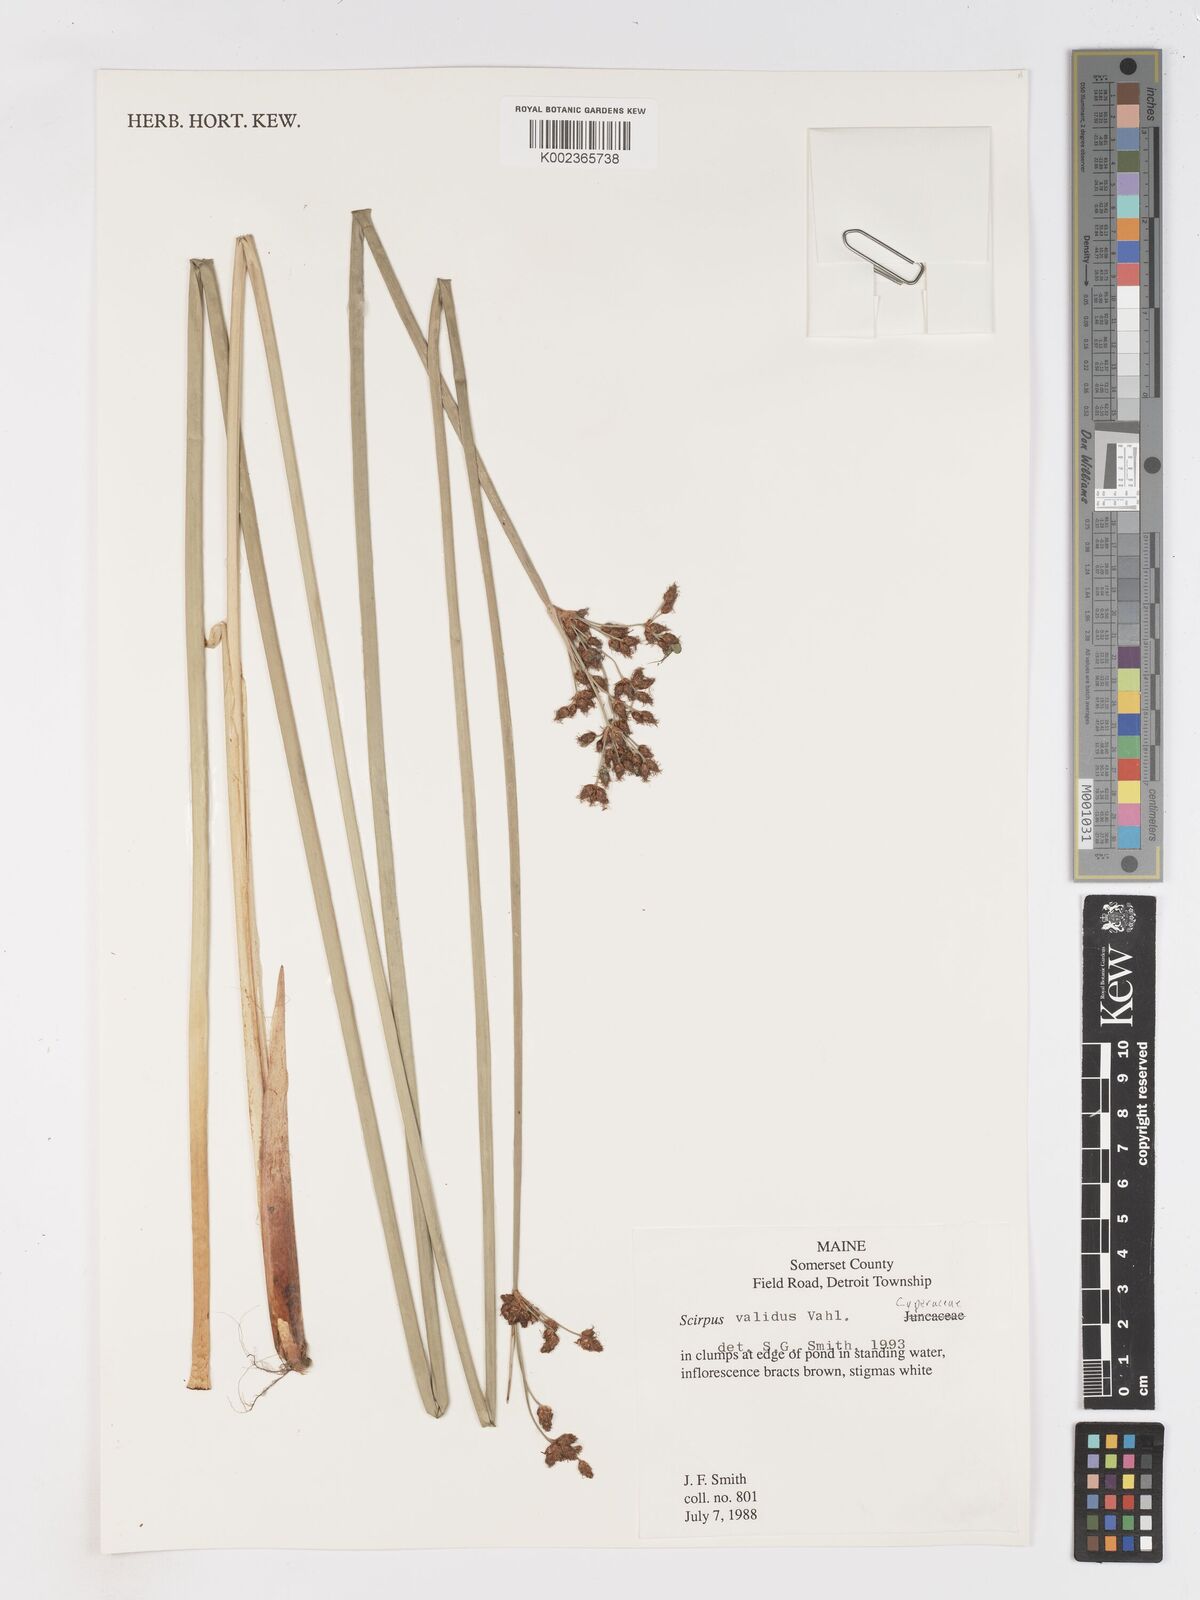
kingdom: Plantae
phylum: Tracheophyta
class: Liliopsida
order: Poales
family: Cyperaceae
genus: Schoenoplectus
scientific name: Schoenoplectus lacustris
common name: Common club-rush
